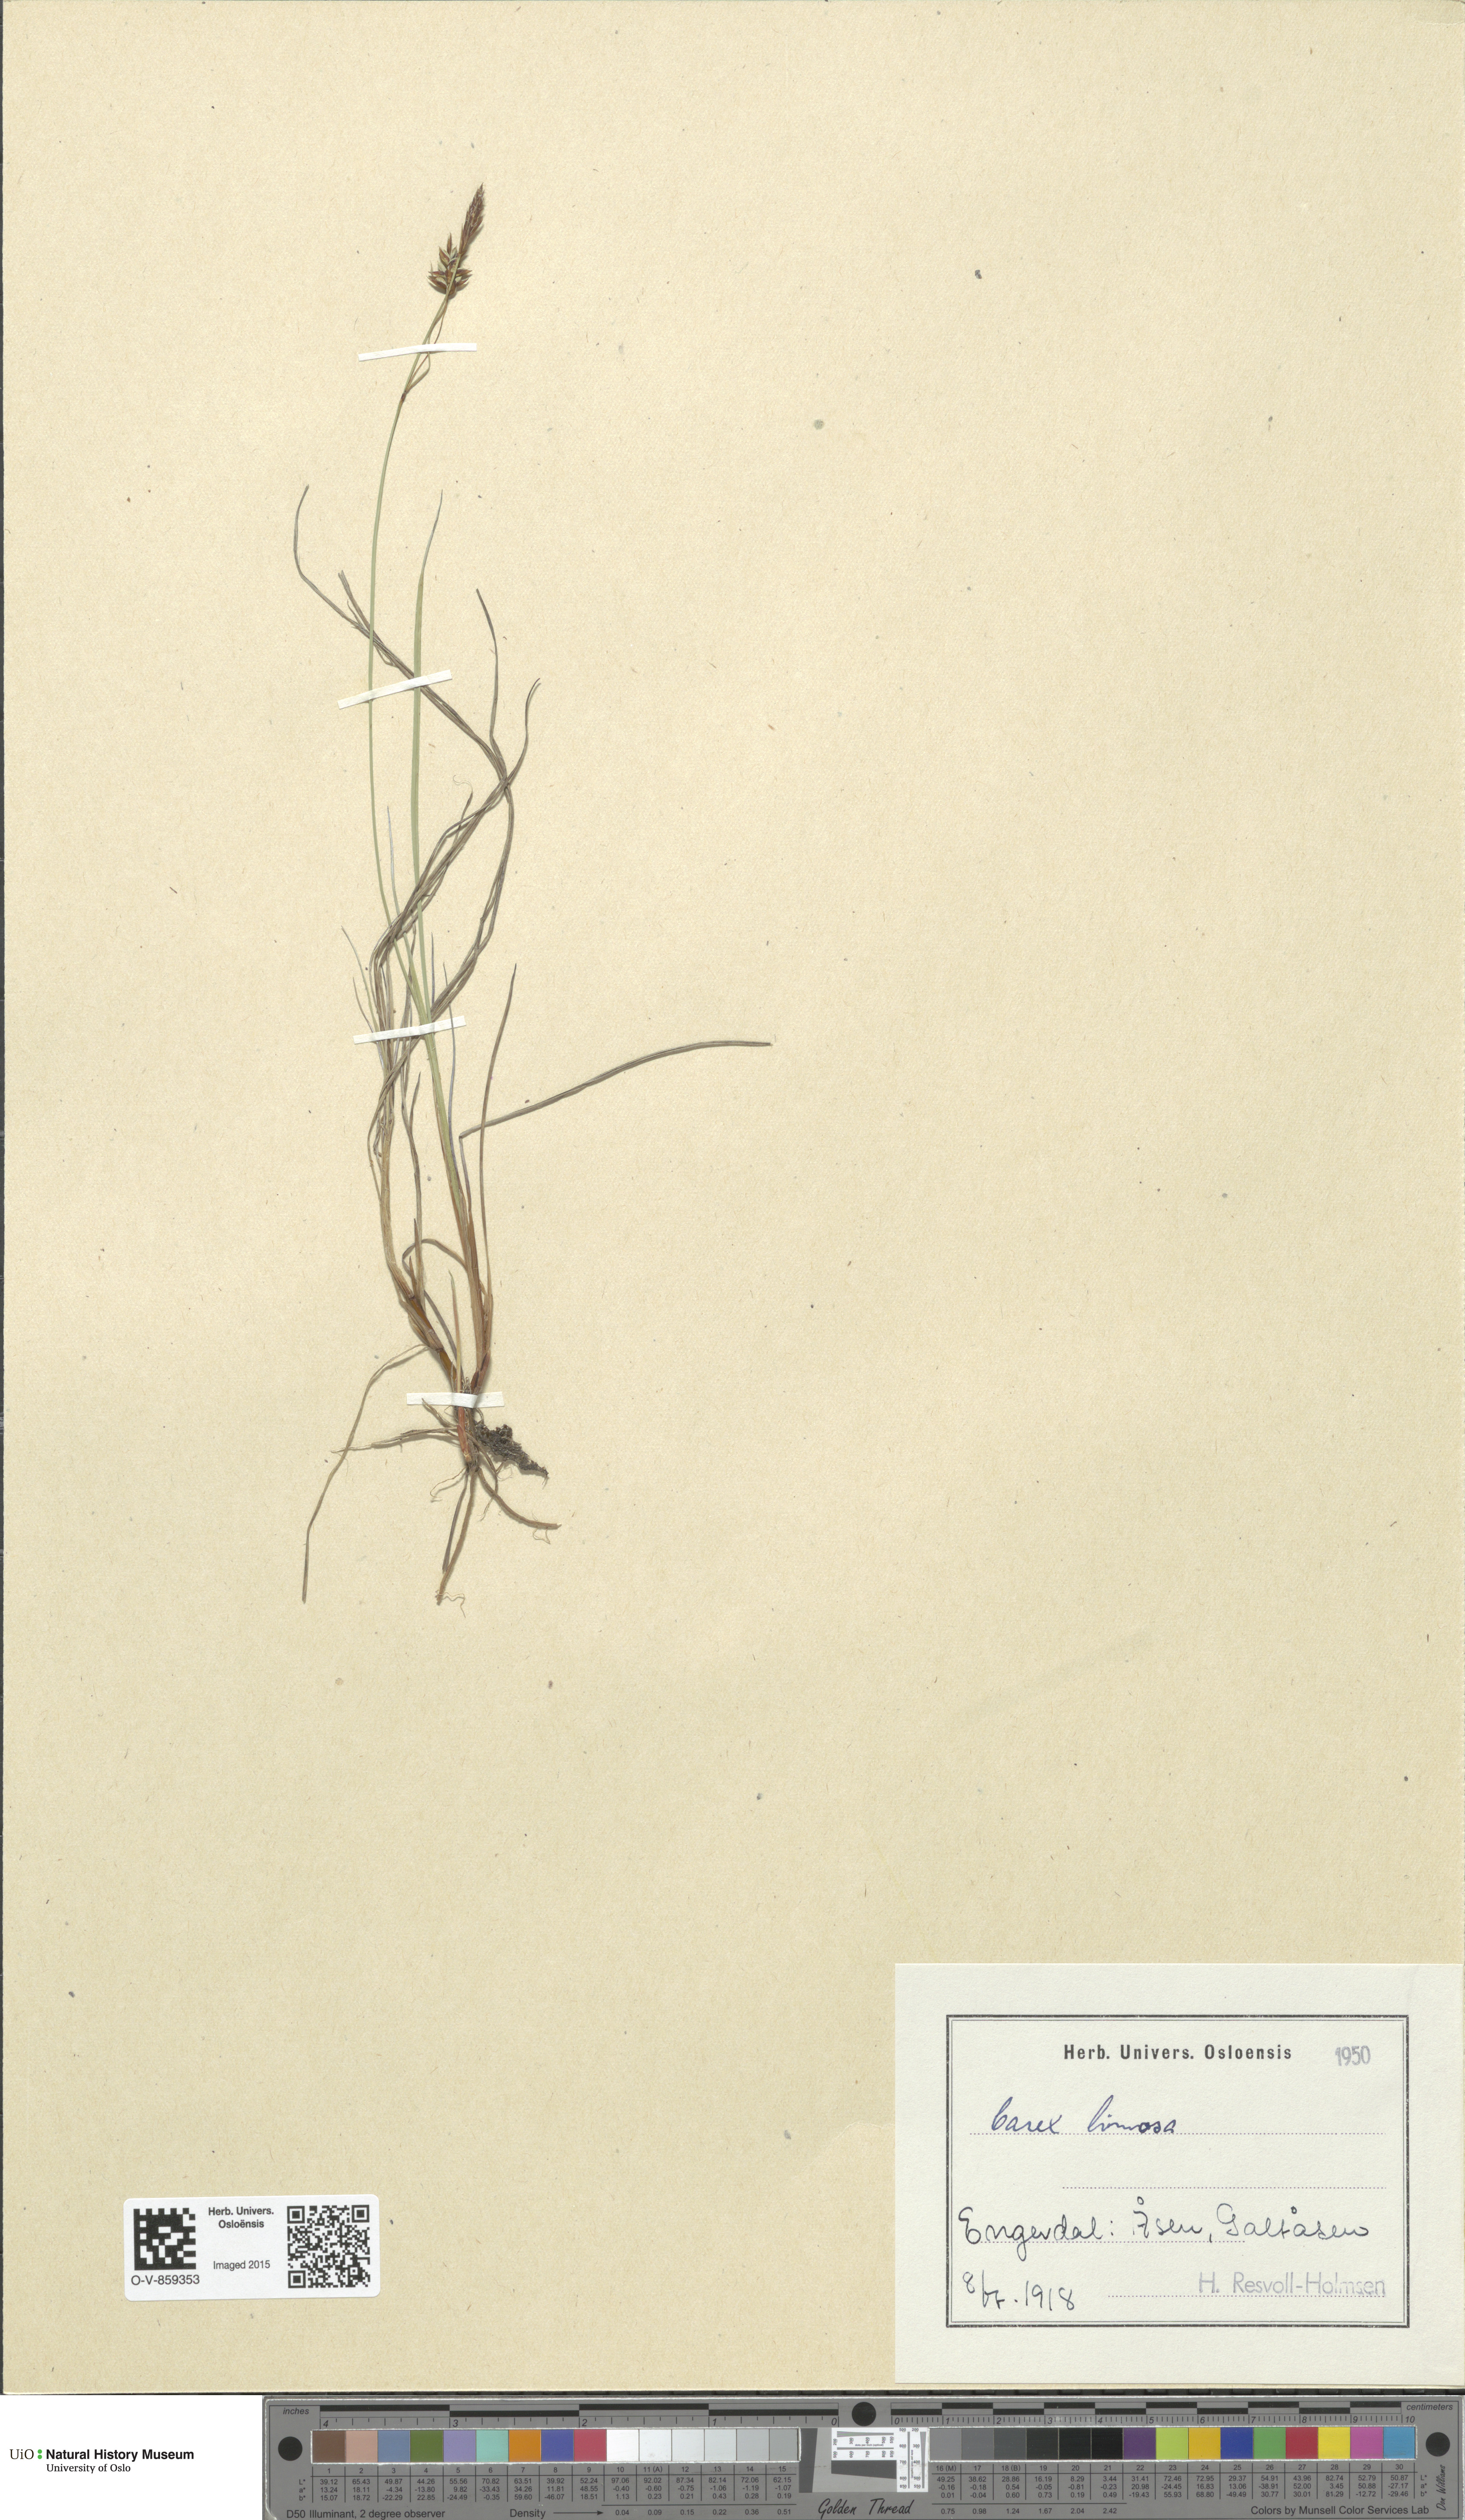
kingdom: Plantae
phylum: Tracheophyta
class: Liliopsida
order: Poales
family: Cyperaceae
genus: Carex
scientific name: Carex limosa
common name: Bog sedge
